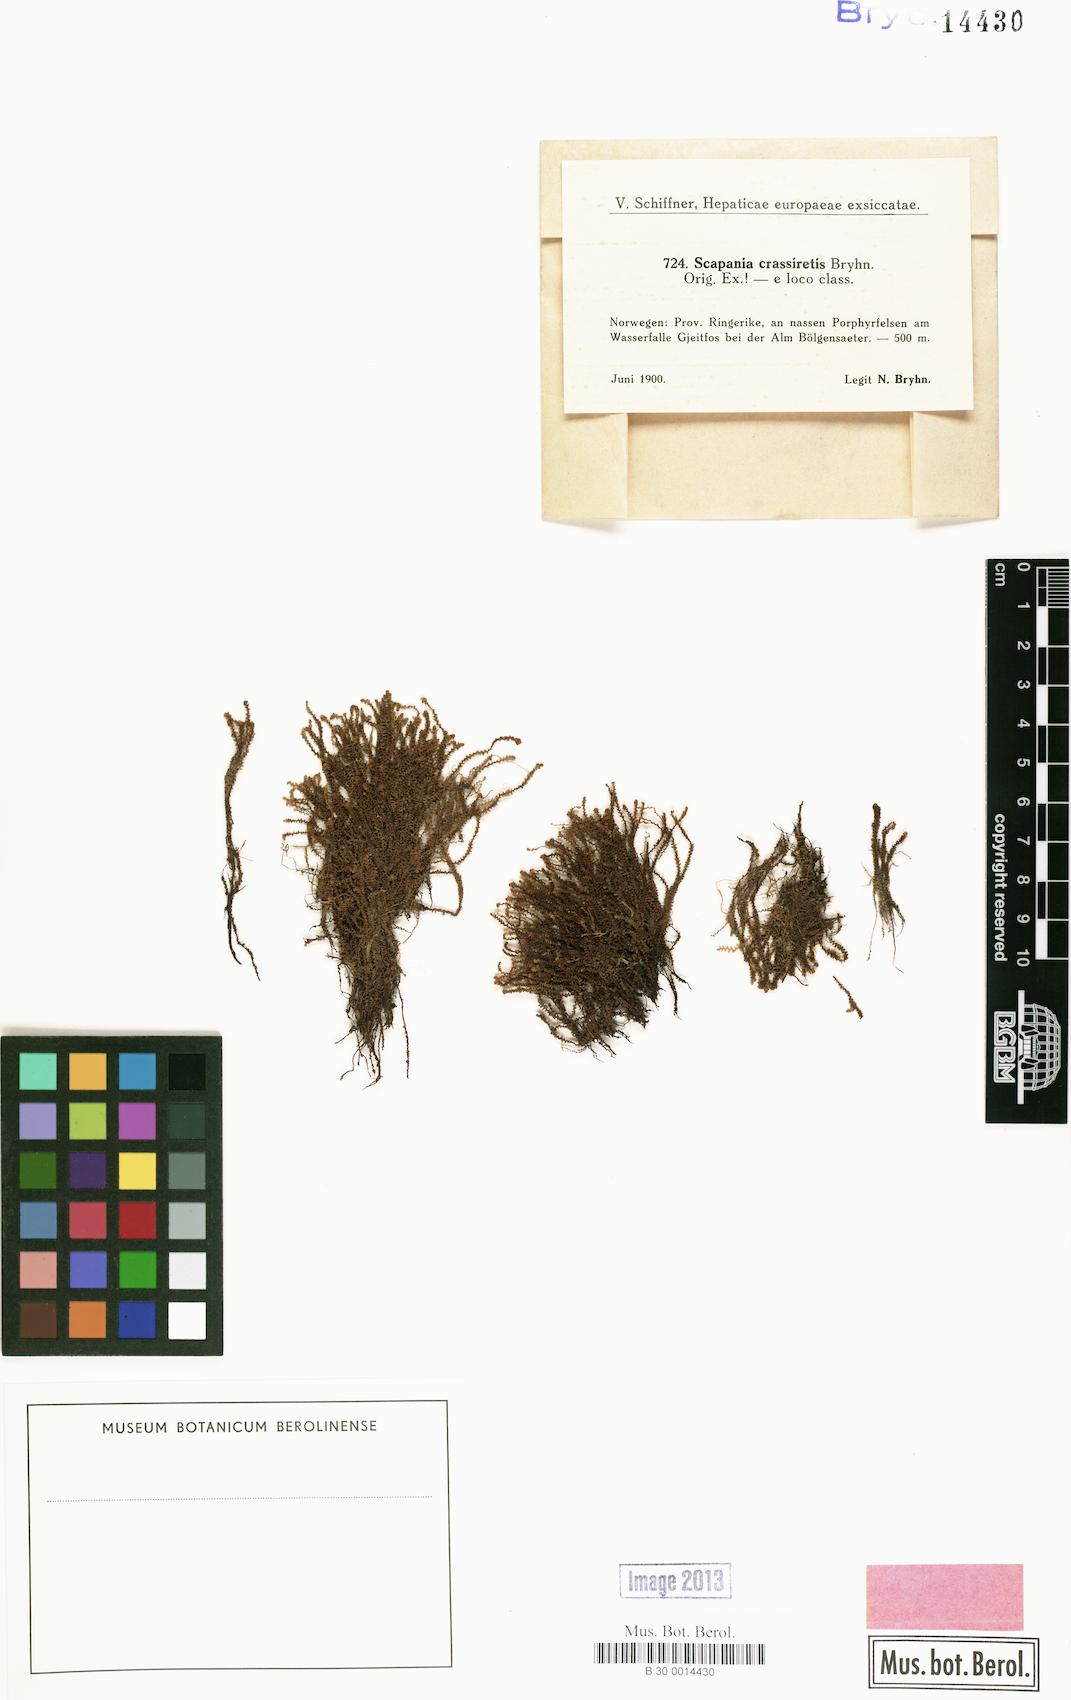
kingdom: Plantae
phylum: Marchantiophyta
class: Jungermanniopsida
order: Jungermanniales
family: Scapaniaceae
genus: Scapania
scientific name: Scapania crassiretis
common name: Knobby earwort
